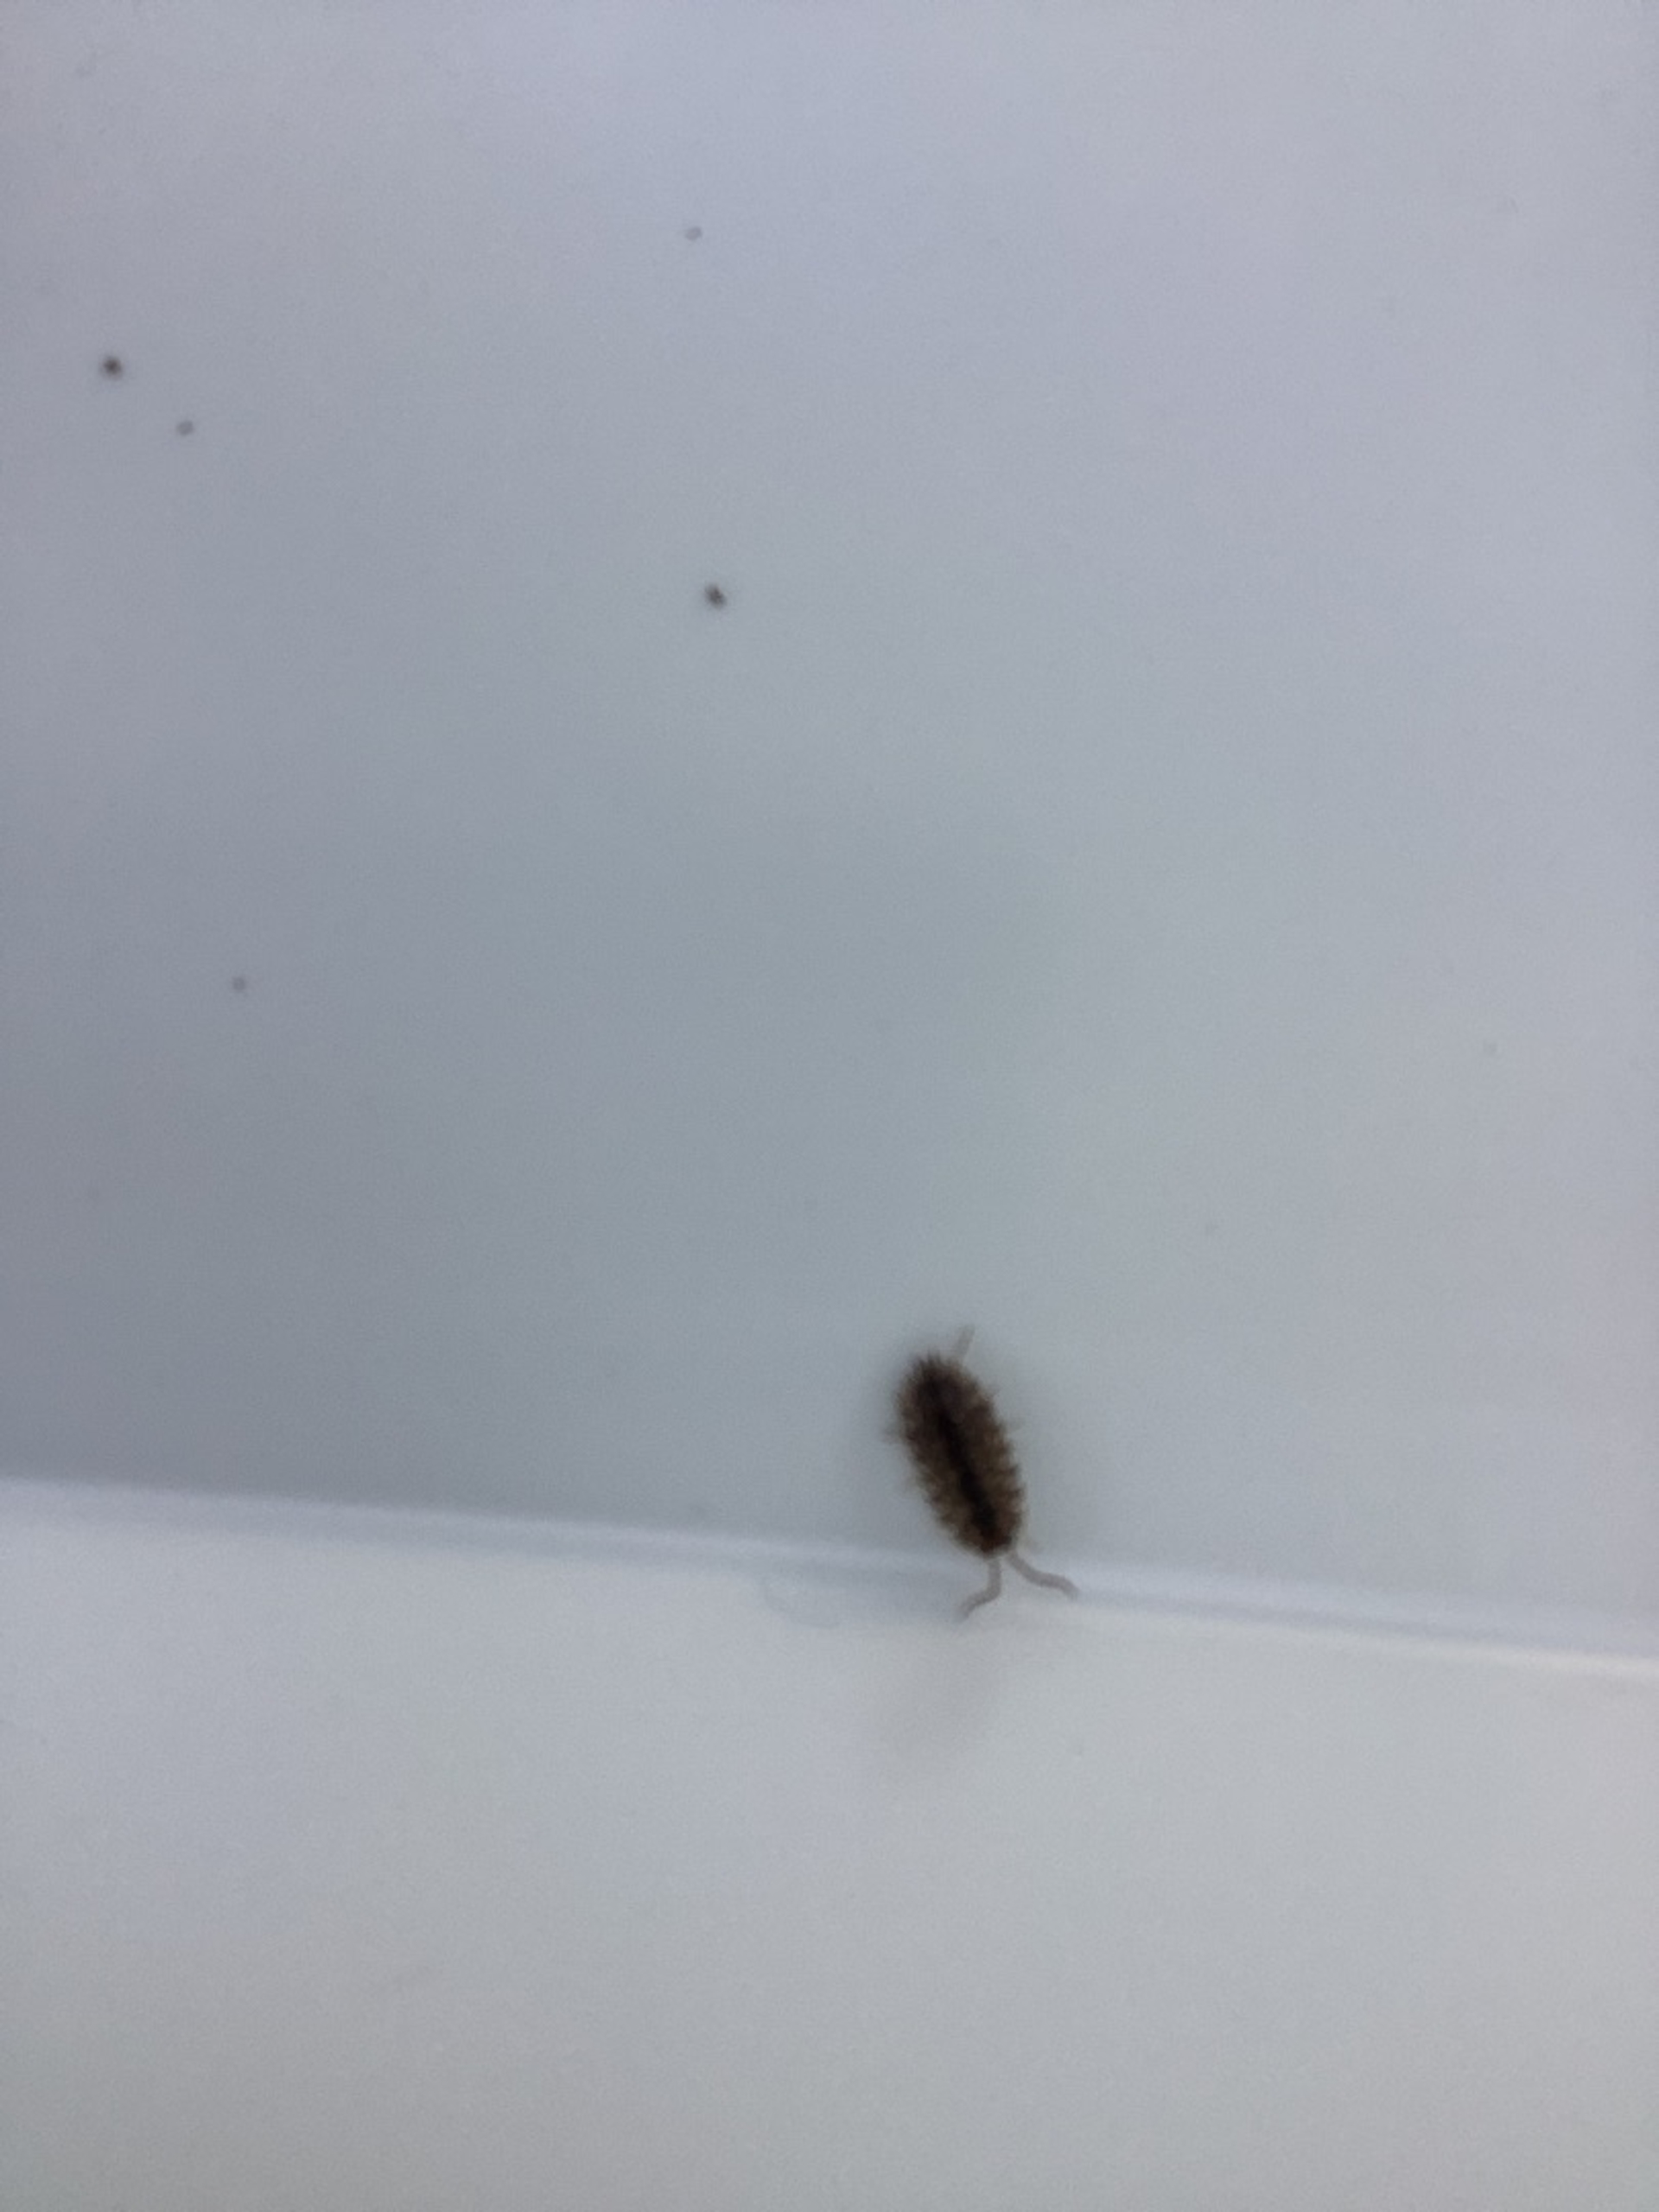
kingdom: Animalia
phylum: Arthropoda
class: Malacostraca
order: Isopoda
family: Oniscidae
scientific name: Oniscidae
